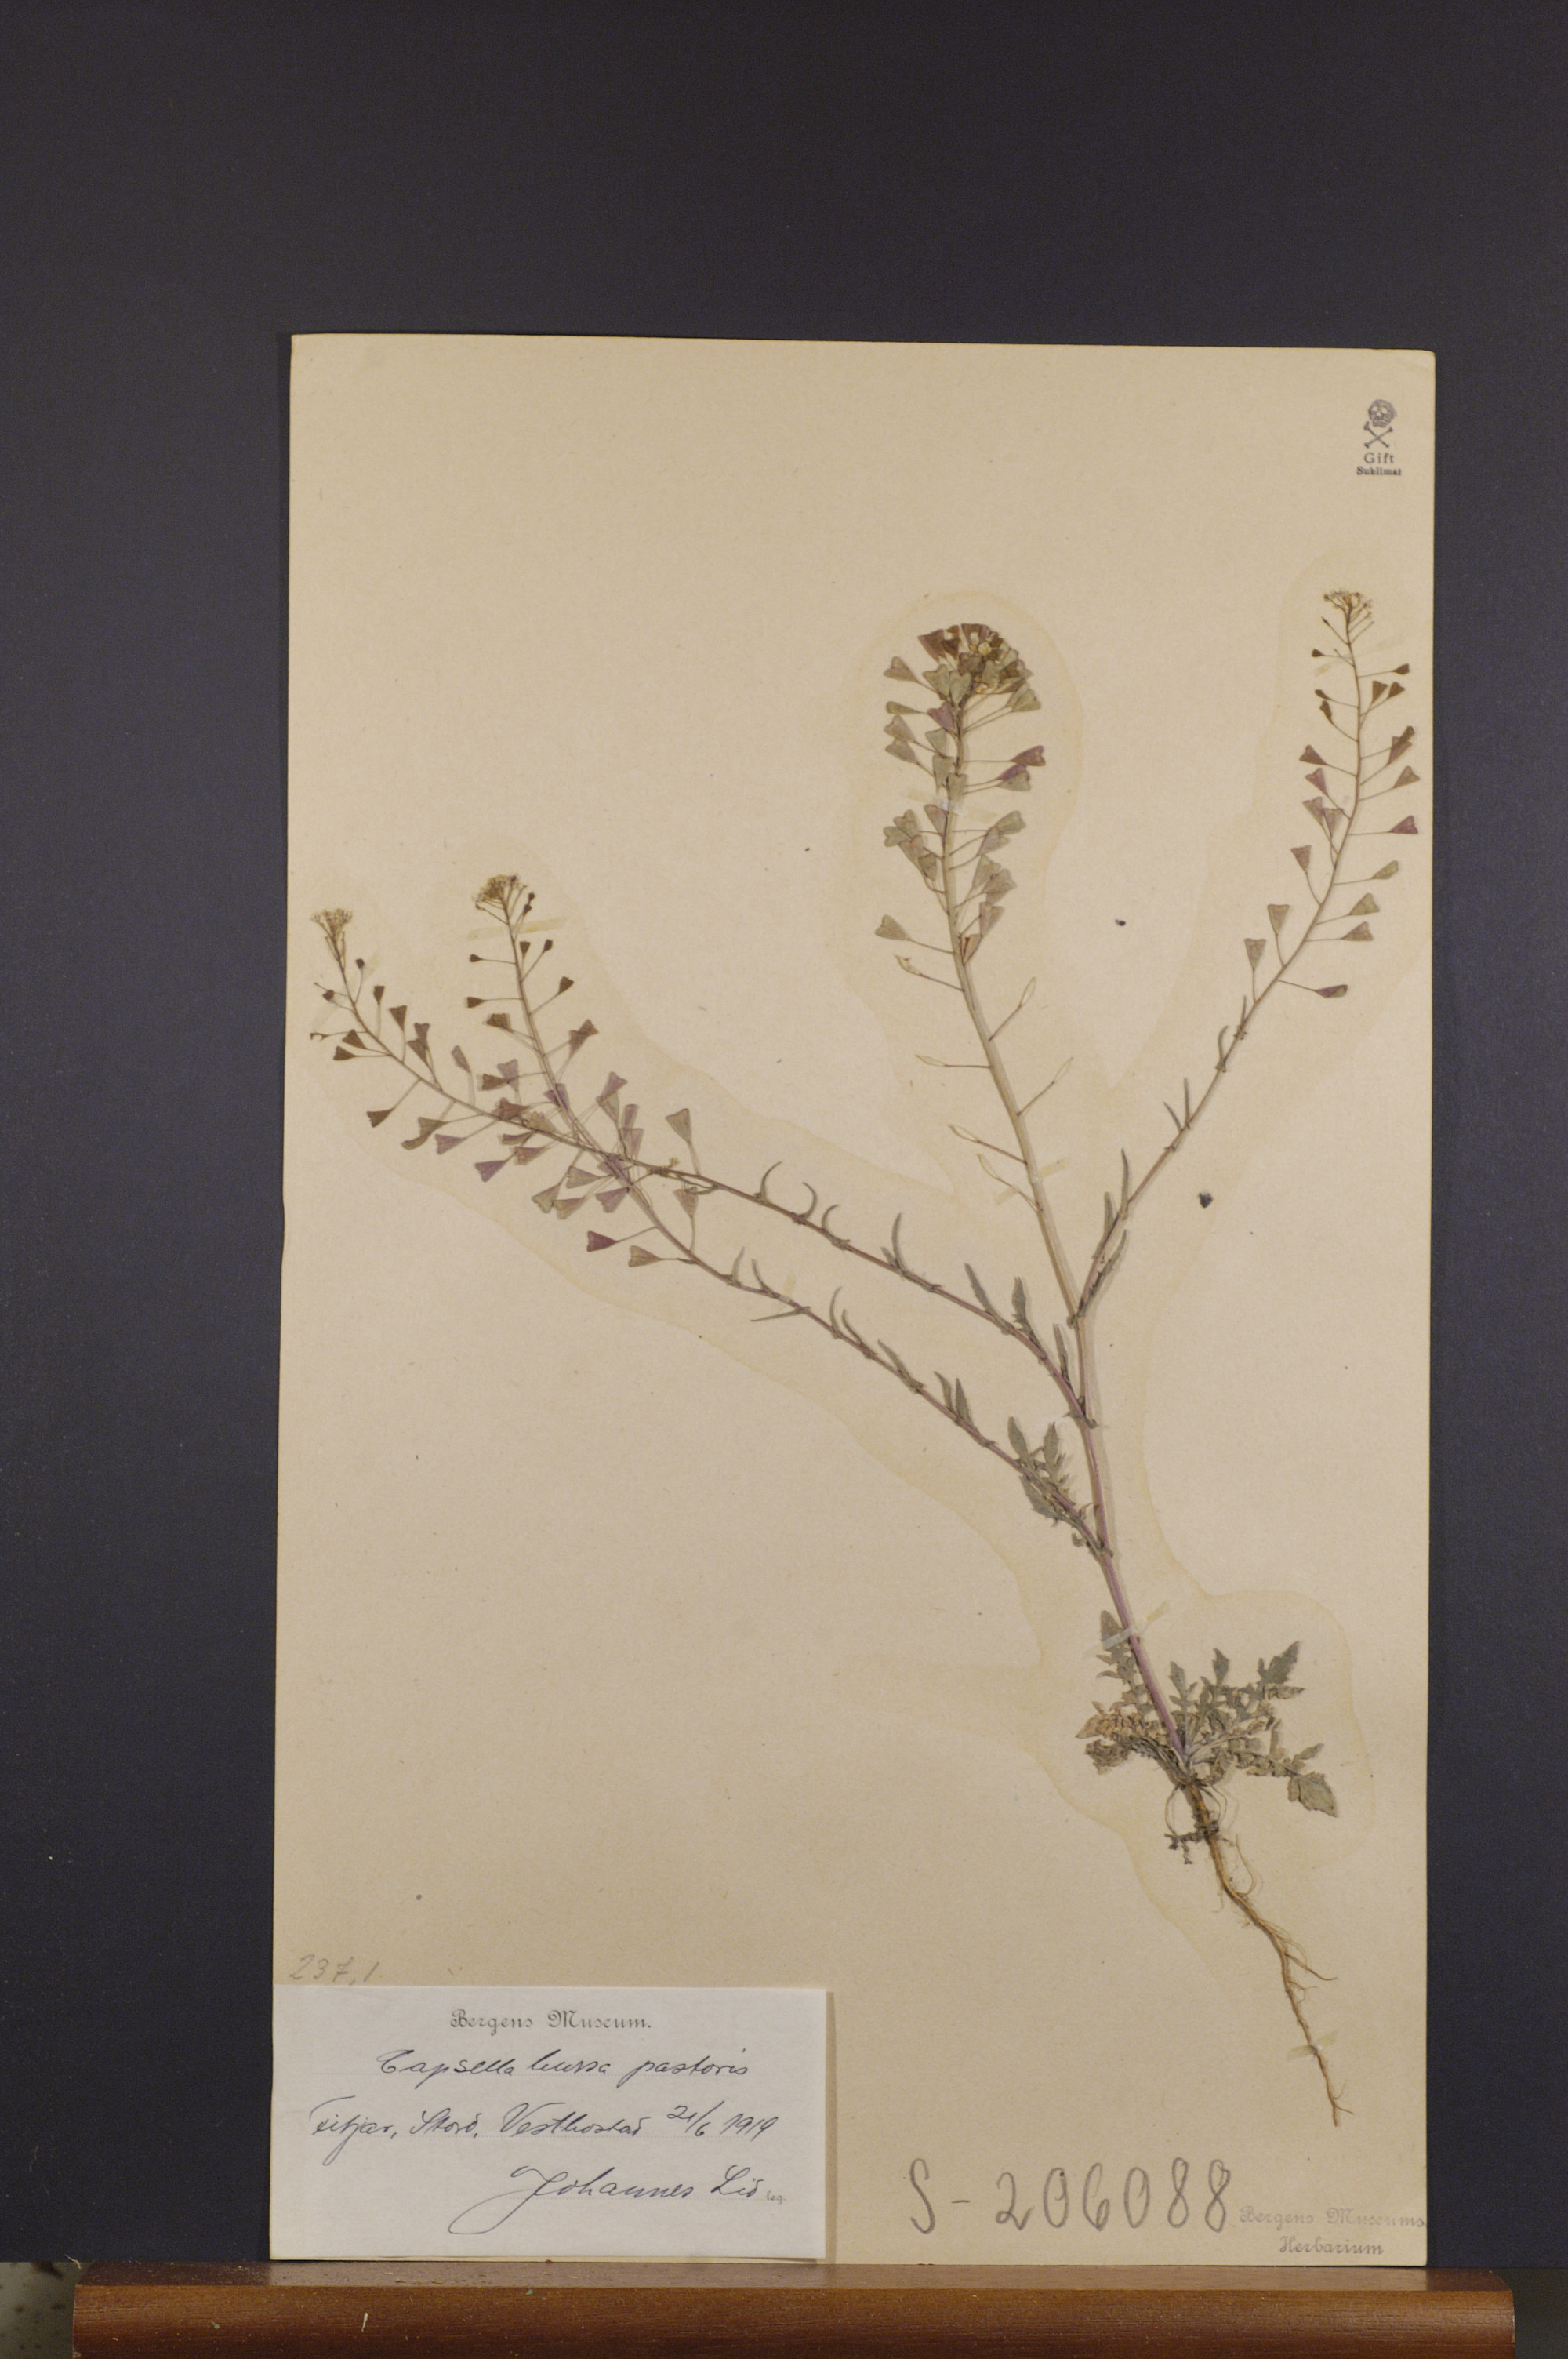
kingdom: Plantae
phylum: Tracheophyta
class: Magnoliopsida
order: Brassicales
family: Brassicaceae
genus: Capsella
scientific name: Capsella bursa-pastoris
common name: Shepherd's purse
